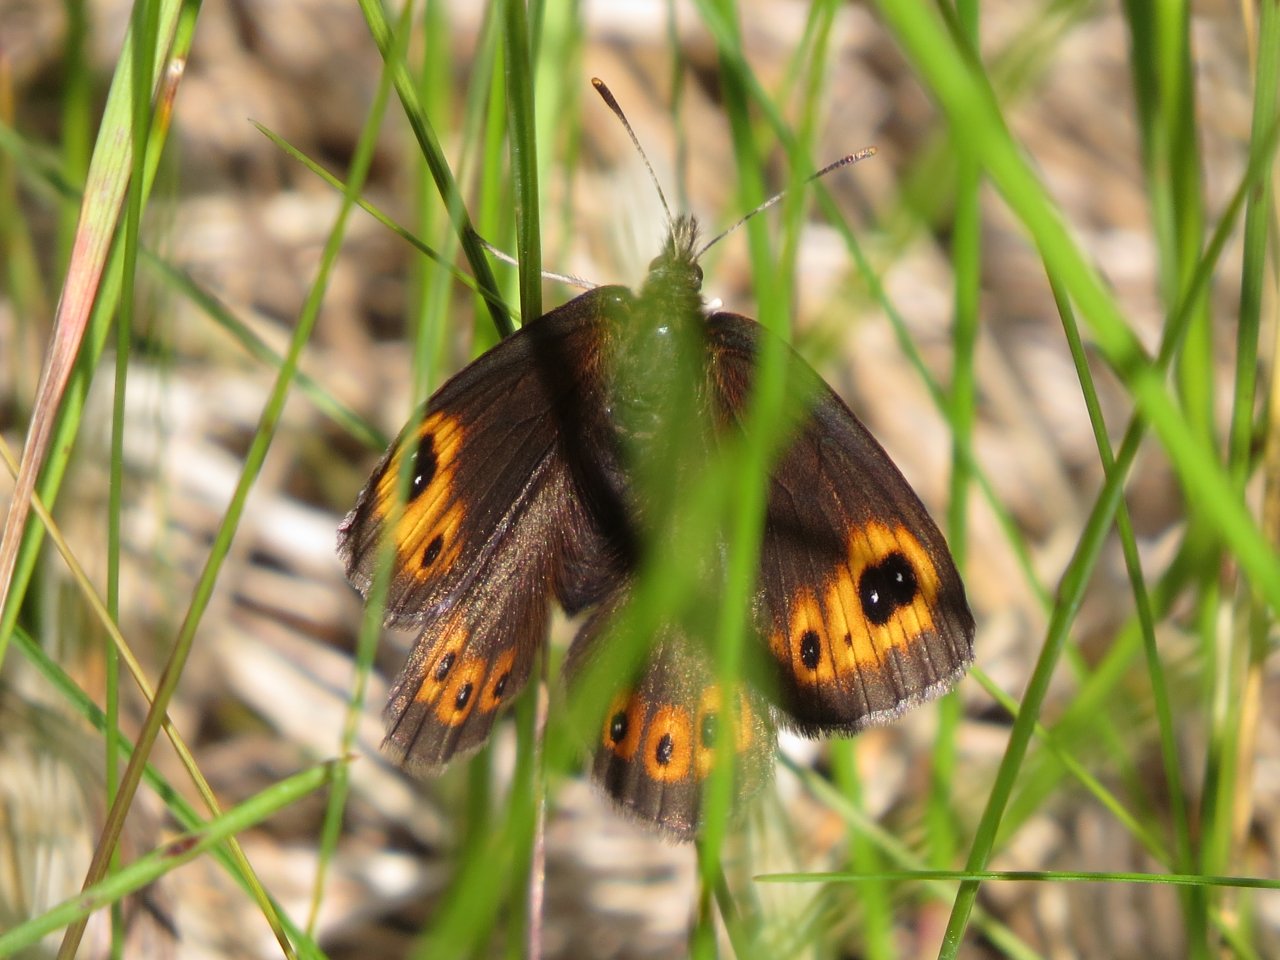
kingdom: Animalia
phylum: Arthropoda
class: Insecta
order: Lepidoptera
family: Nymphalidae
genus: Erebia
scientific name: Erebia epipsodea
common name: Common Alpine
